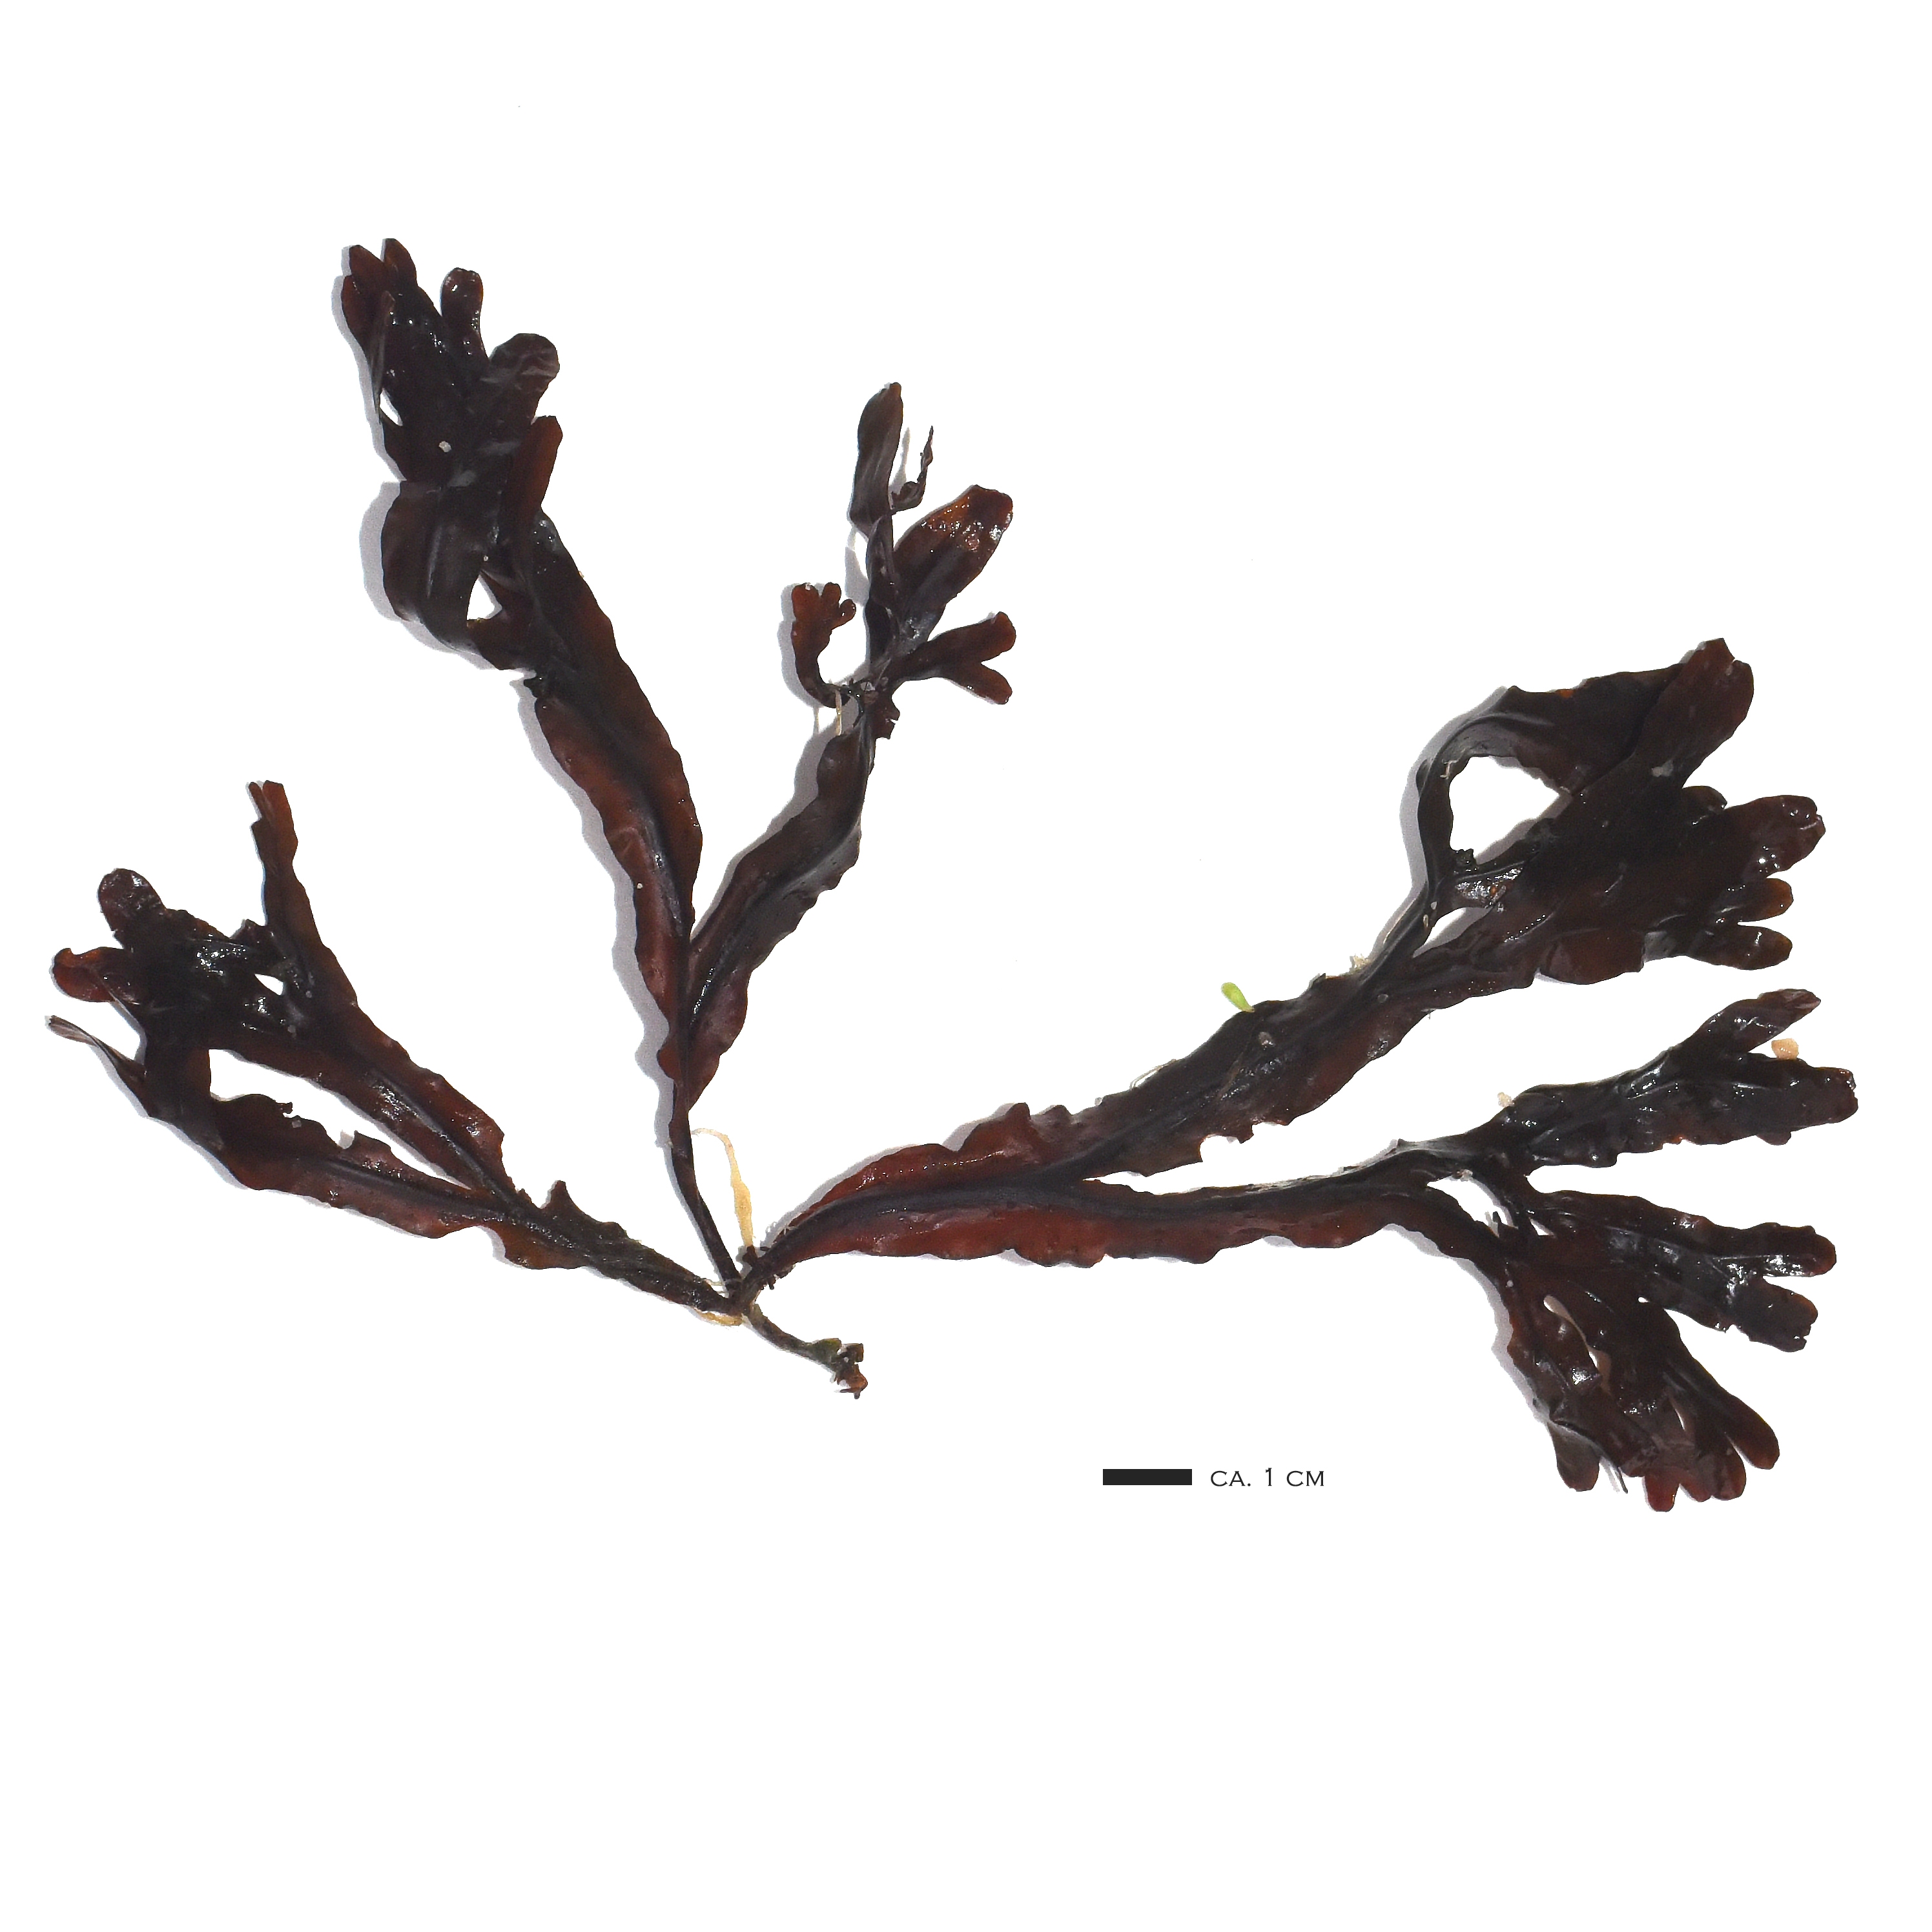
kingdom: Chromista
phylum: Ochrophyta
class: Phaeophyceae
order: Fucales
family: Fucaceae
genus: Fucus
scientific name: Fucus vesiculosus
